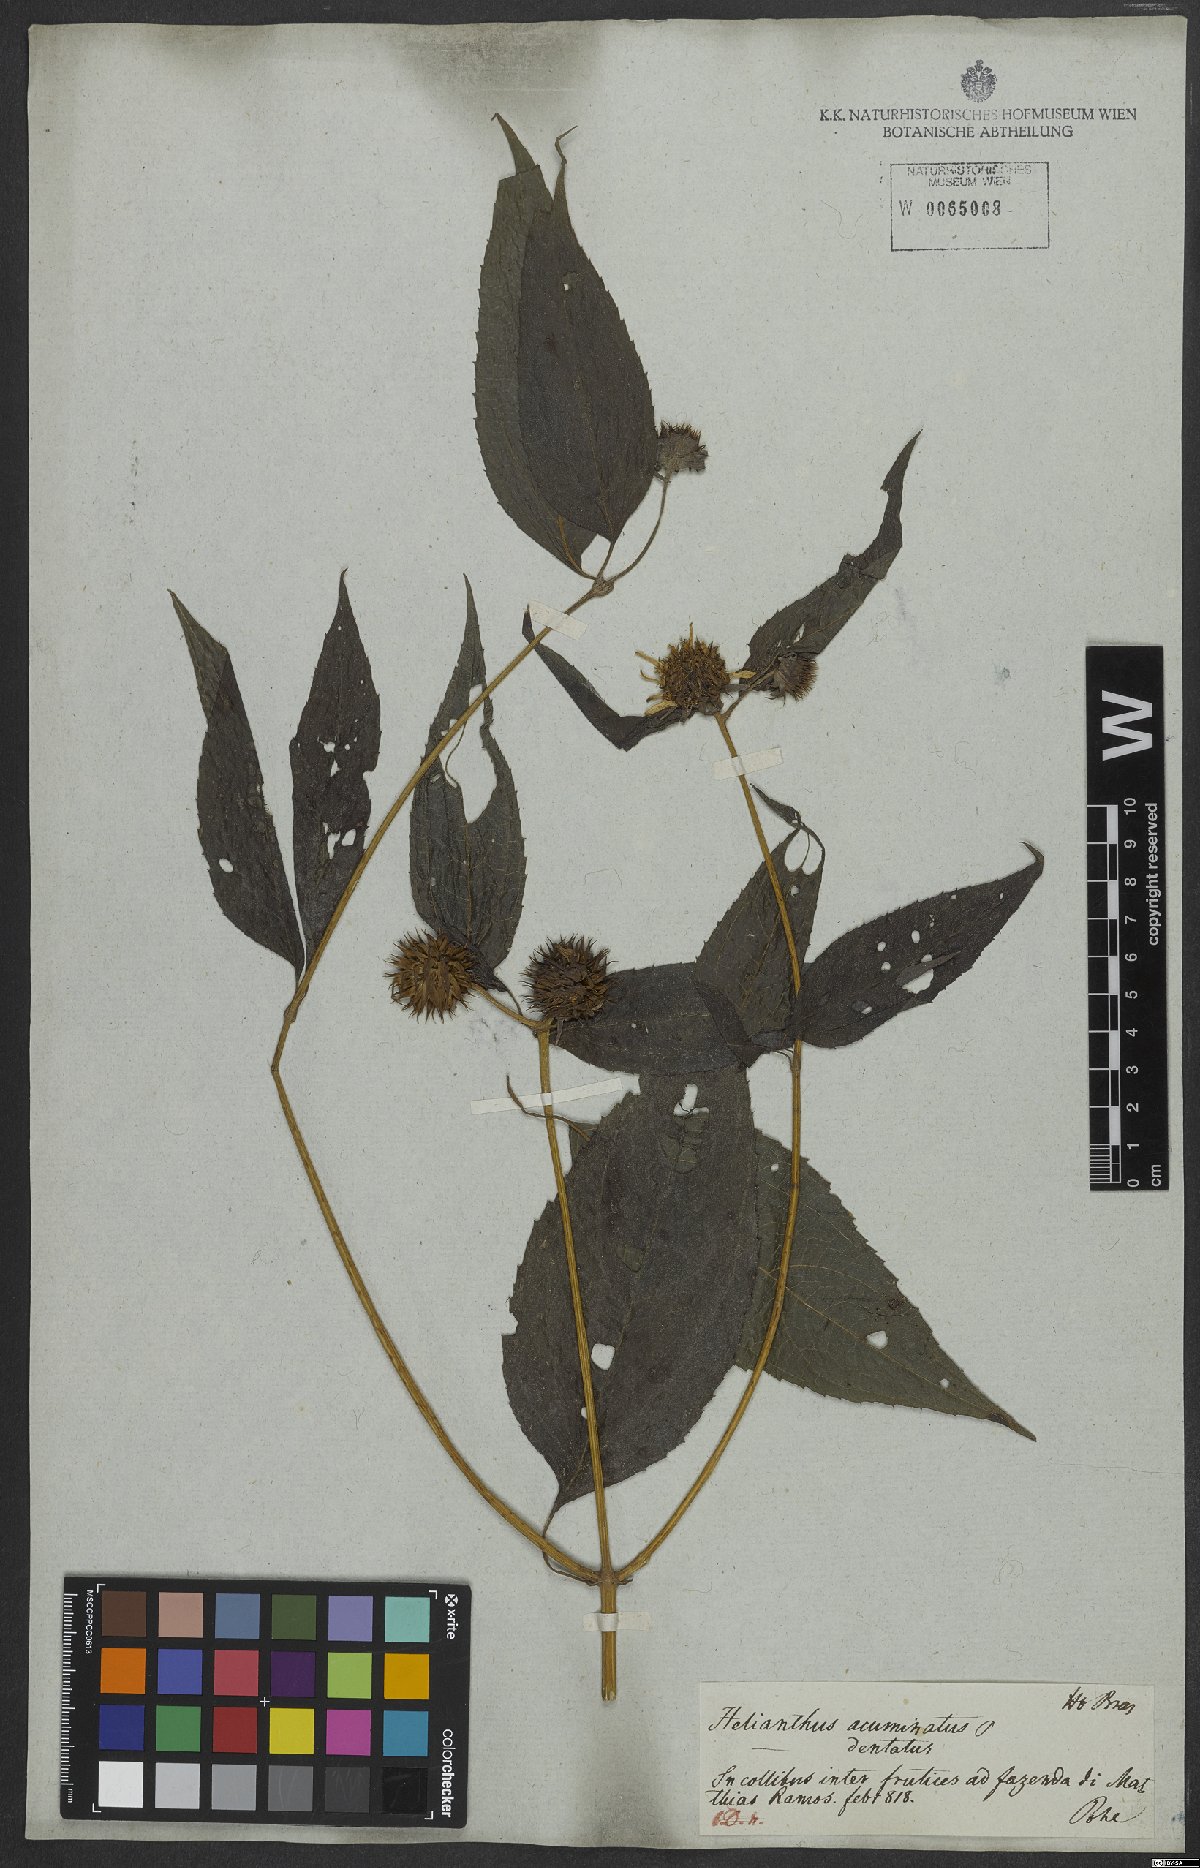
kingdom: Plantae
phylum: Tracheophyta
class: Magnoliopsida
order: Asterales
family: Asteraceae
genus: Viguiera
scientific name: Viguiera dentata
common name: Toothleaf
